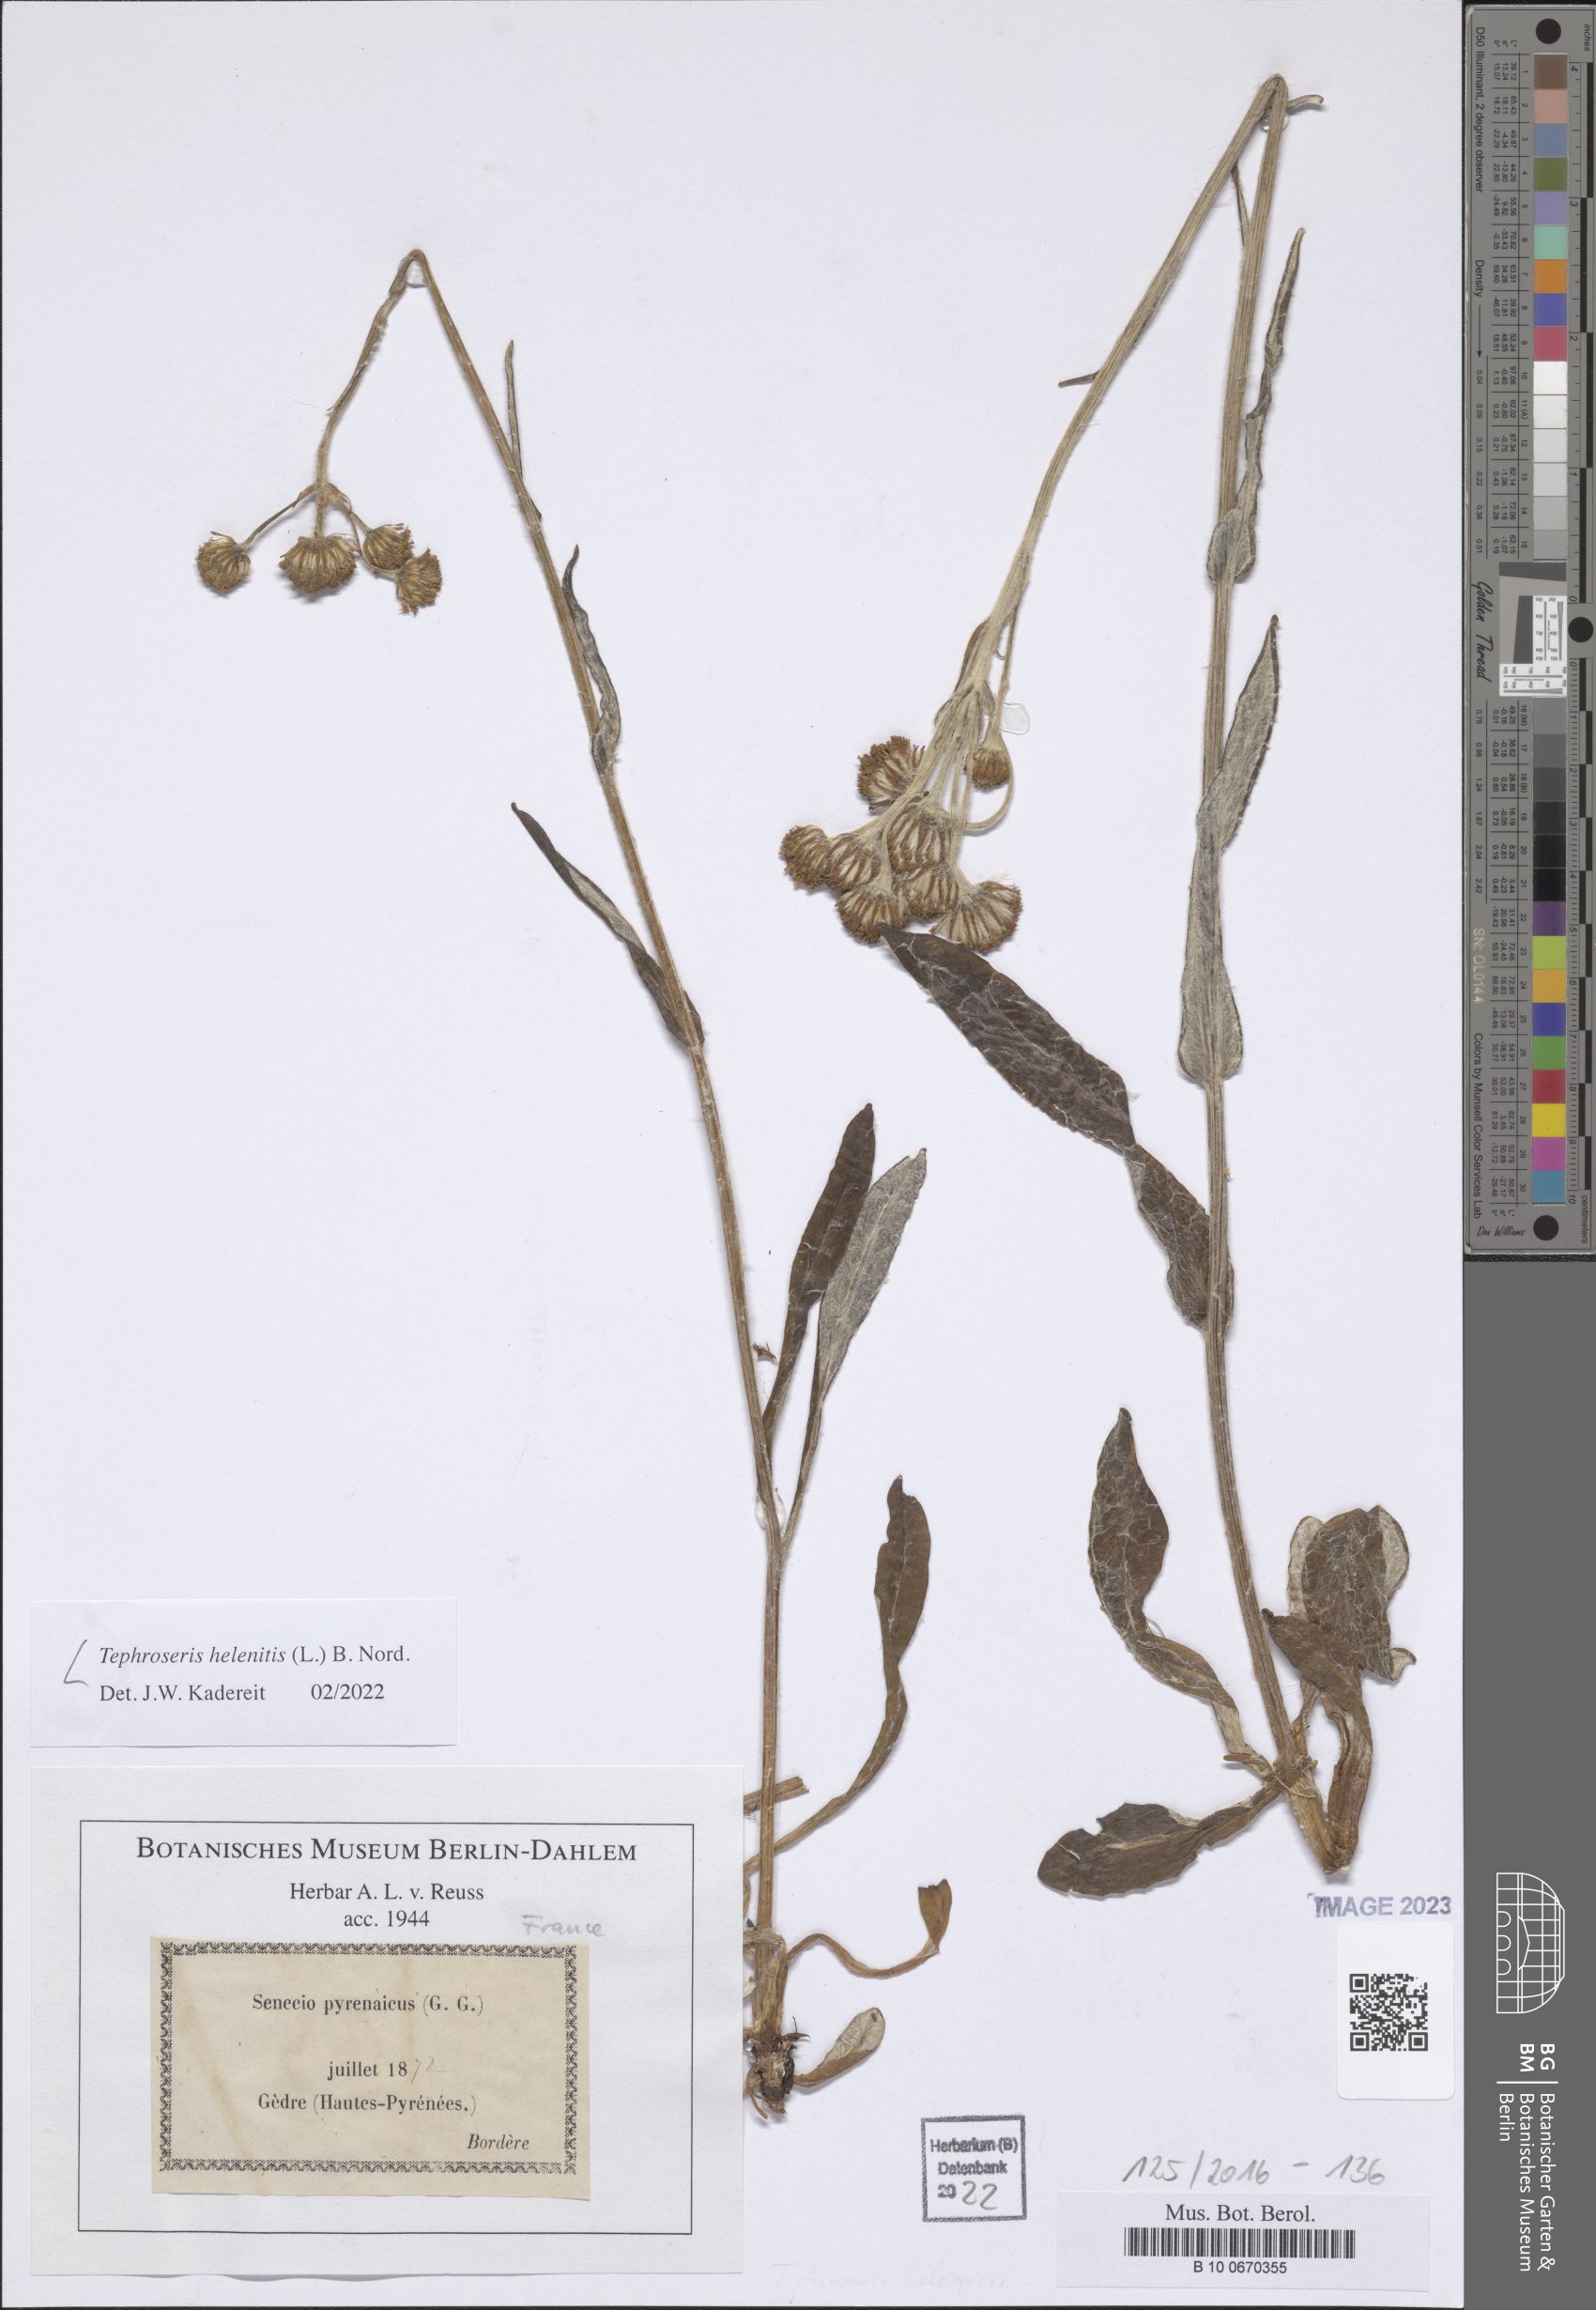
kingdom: Plantae
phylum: Tracheophyta
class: Magnoliopsida
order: Asterales
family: Asteraceae
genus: Tephroseris
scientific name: Tephroseris helenitis
